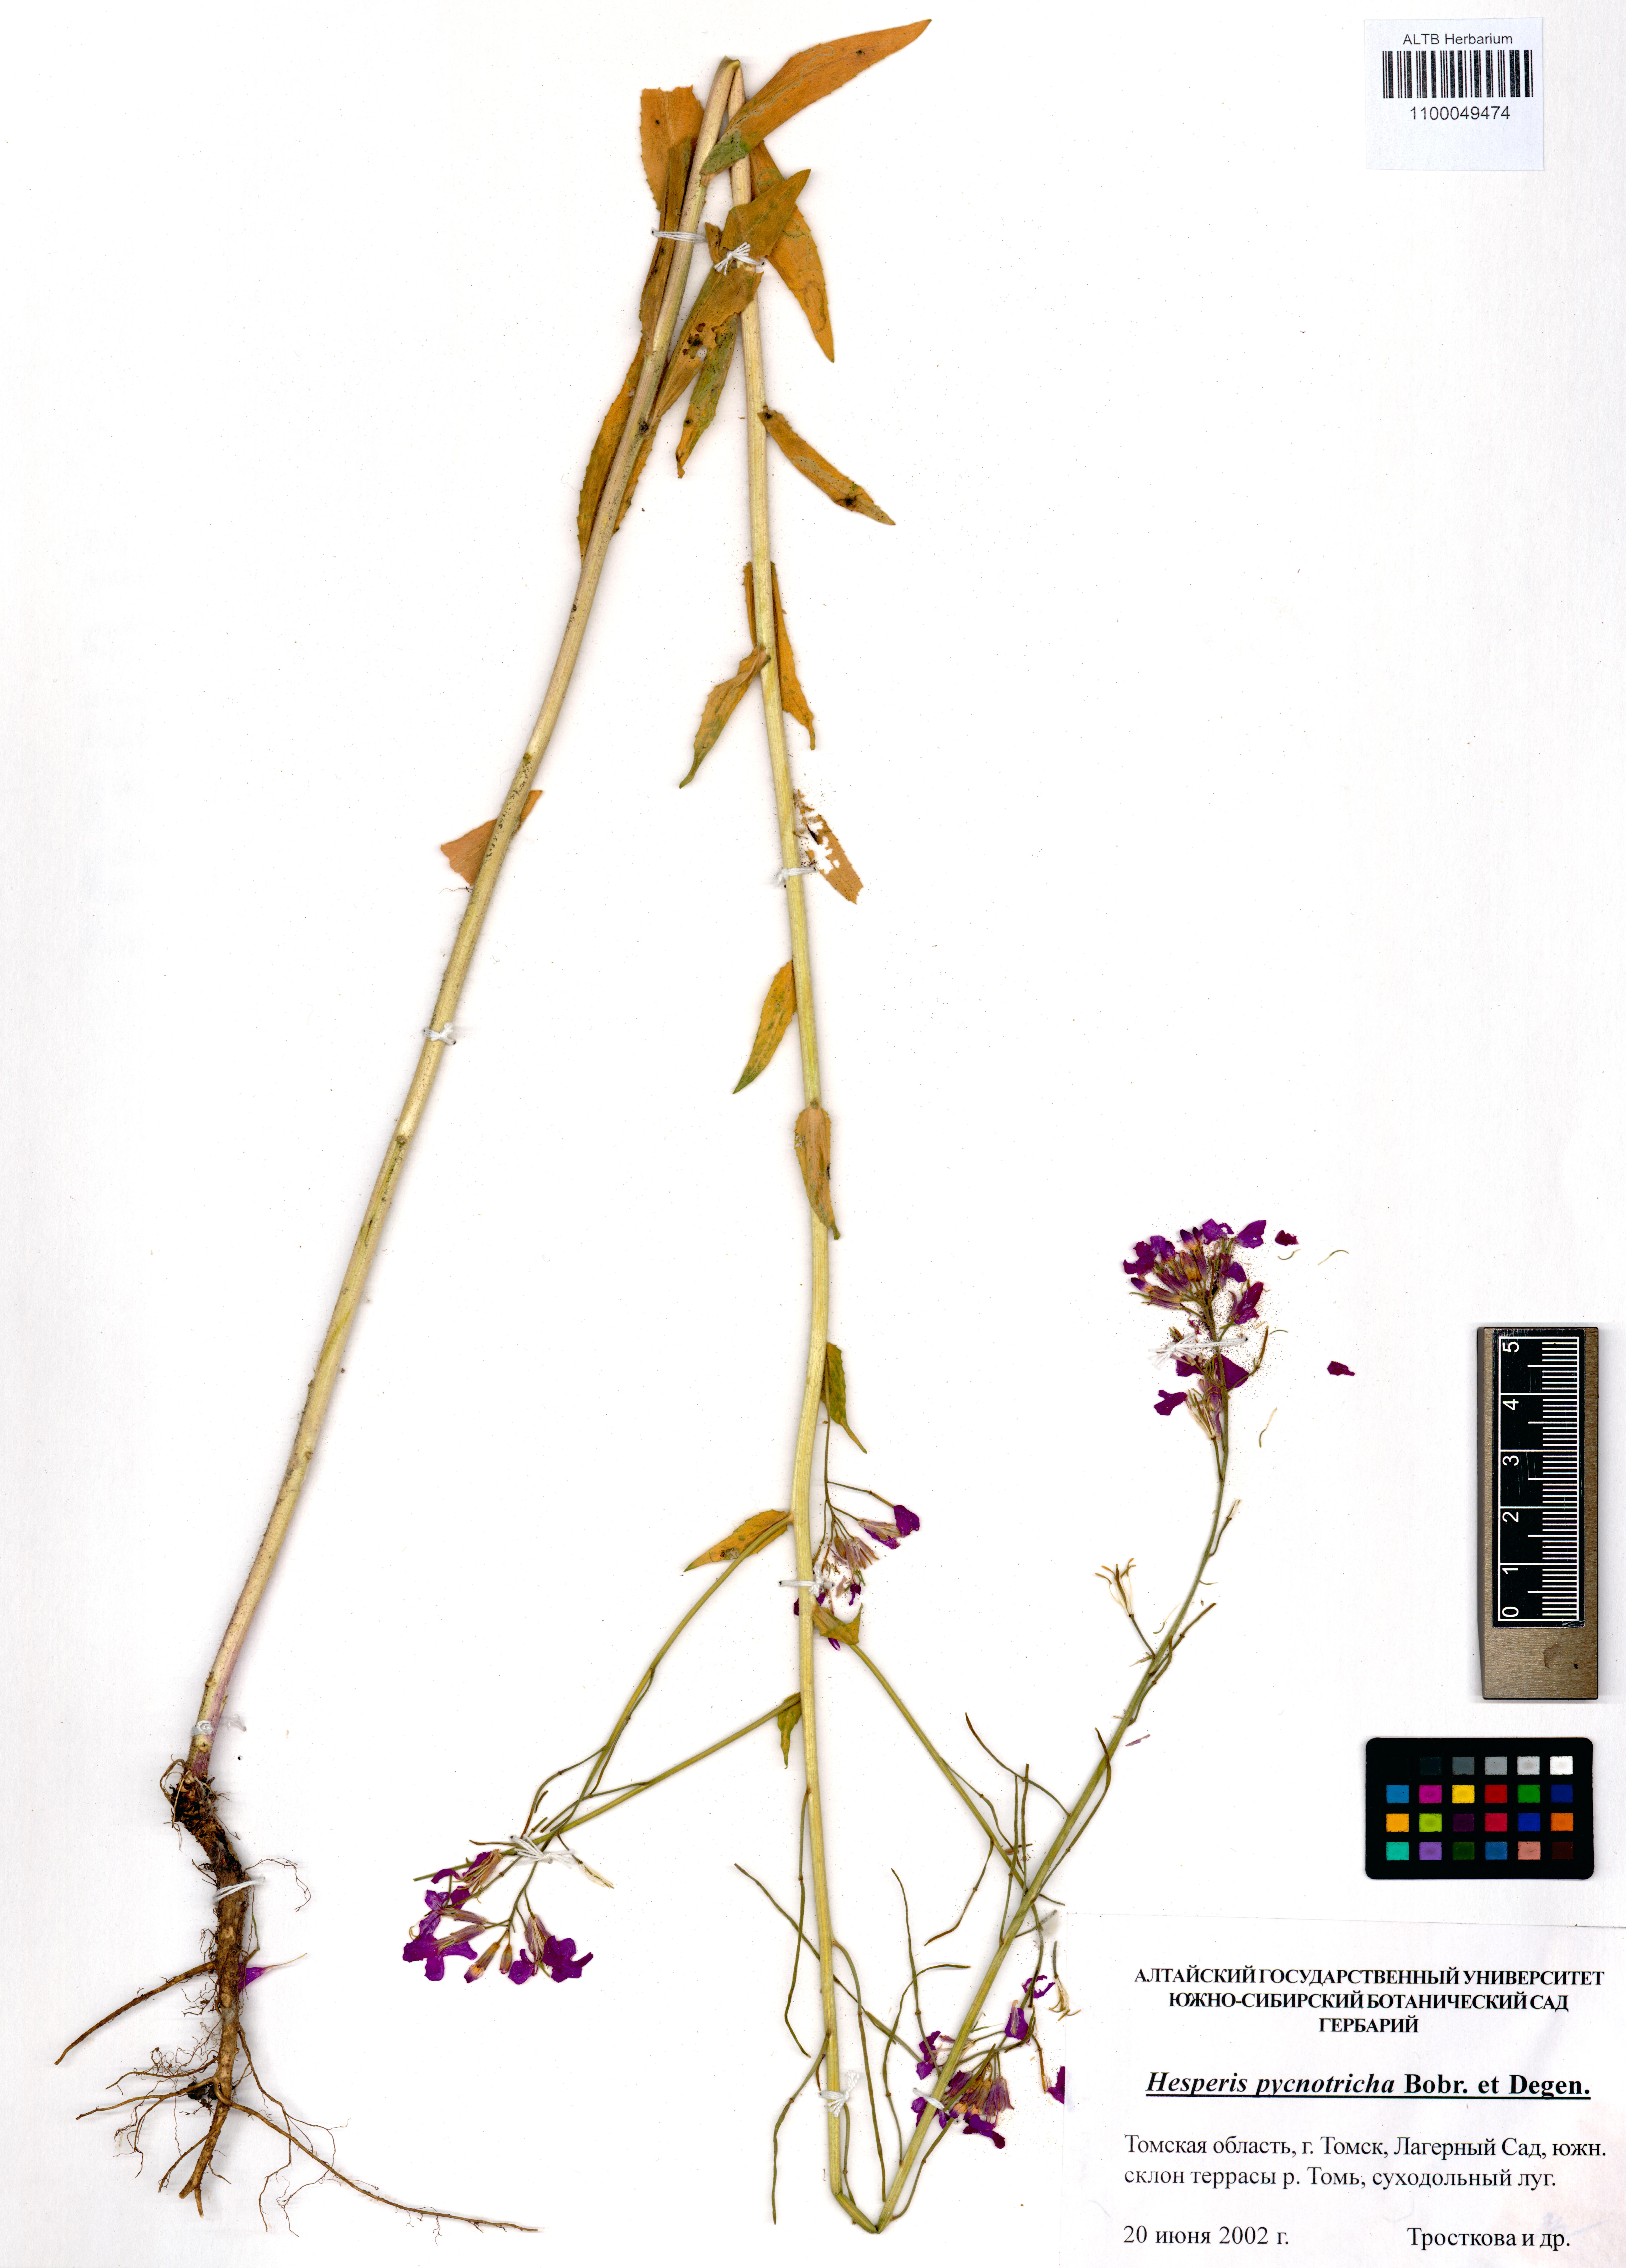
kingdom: Plantae
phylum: Tracheophyta
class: Magnoliopsida
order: Brassicales
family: Brassicaceae
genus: Hesperis
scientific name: Hesperis pycnotricha
